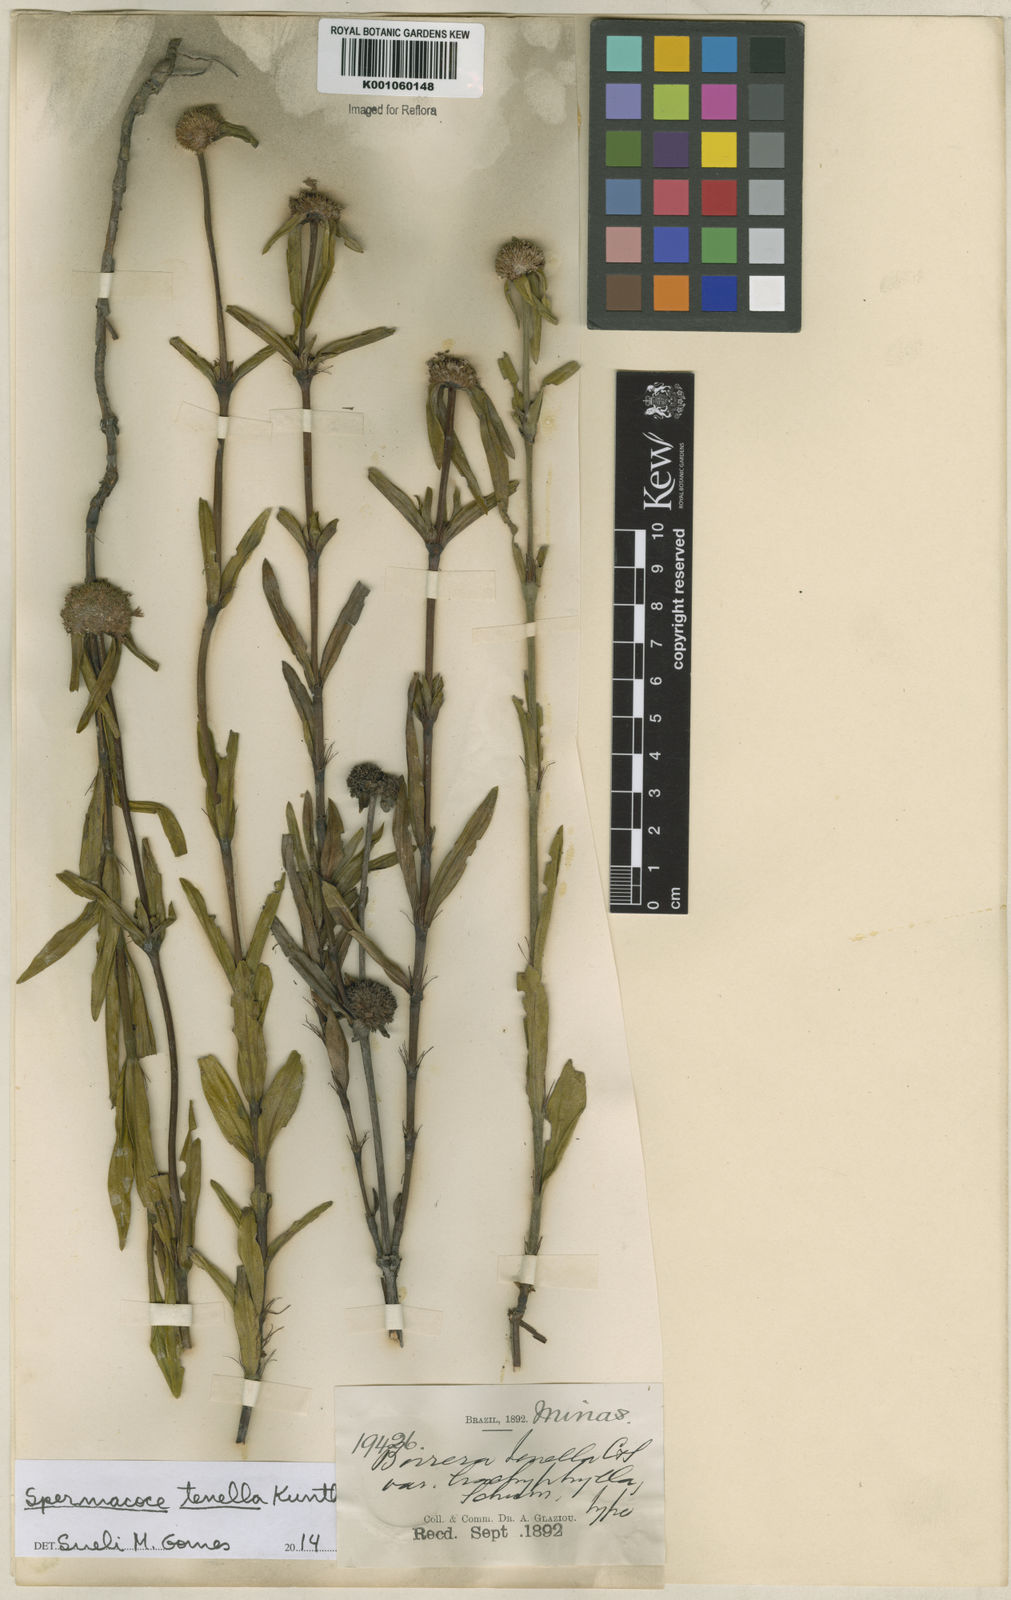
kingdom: Plantae
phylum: Tracheophyta
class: Magnoliopsida
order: Gentianales
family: Rubiaceae
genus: Spermacoce
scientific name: Spermacoce orinocensis
